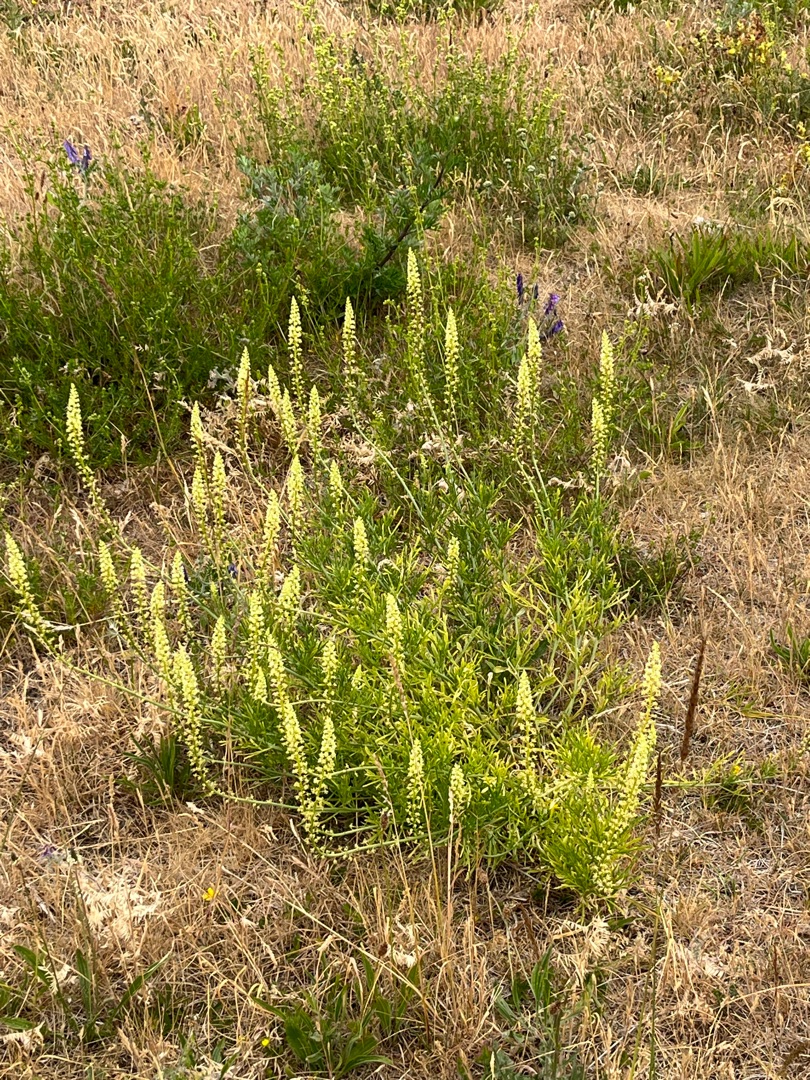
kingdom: Plantae
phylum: Tracheophyta
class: Magnoliopsida
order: Brassicales
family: Resedaceae
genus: Reseda
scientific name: Reseda lutea
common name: Gul reseda
